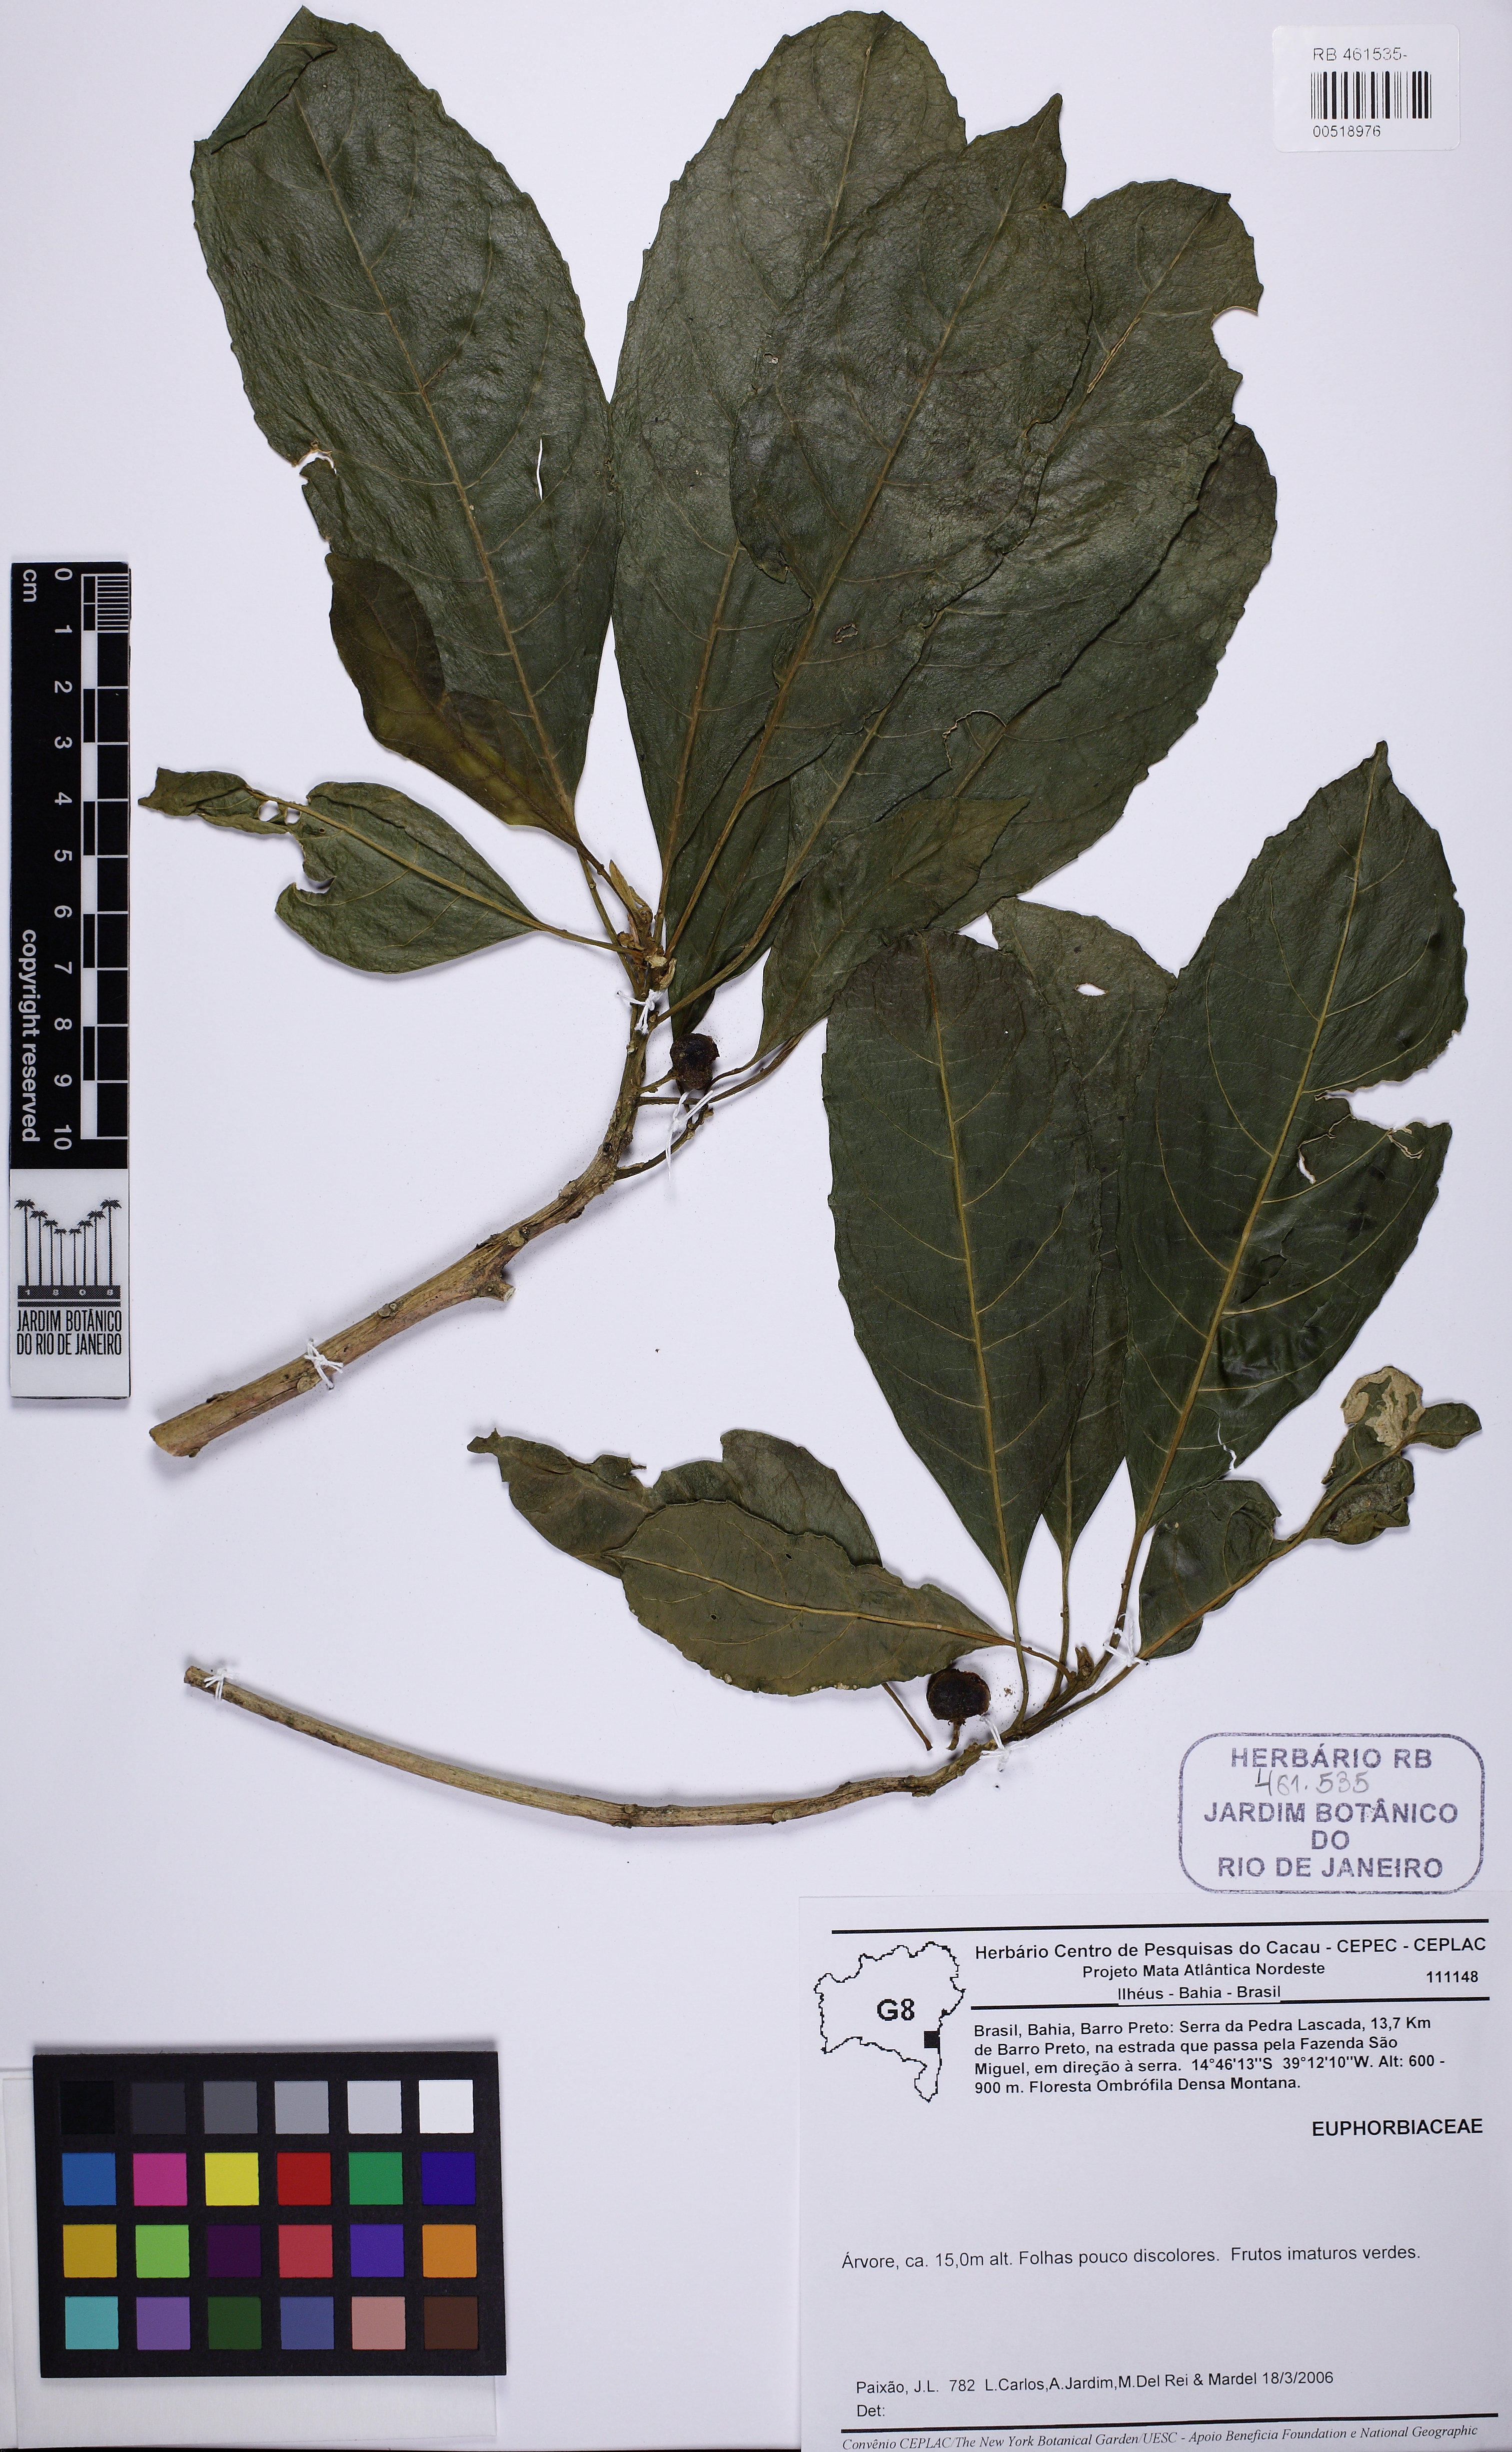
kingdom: Plantae
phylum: Tracheophyta
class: Magnoliopsida
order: Malpighiales
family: Euphorbiaceae
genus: Tetrorchidium
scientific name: Tetrorchidium rubrivenium
